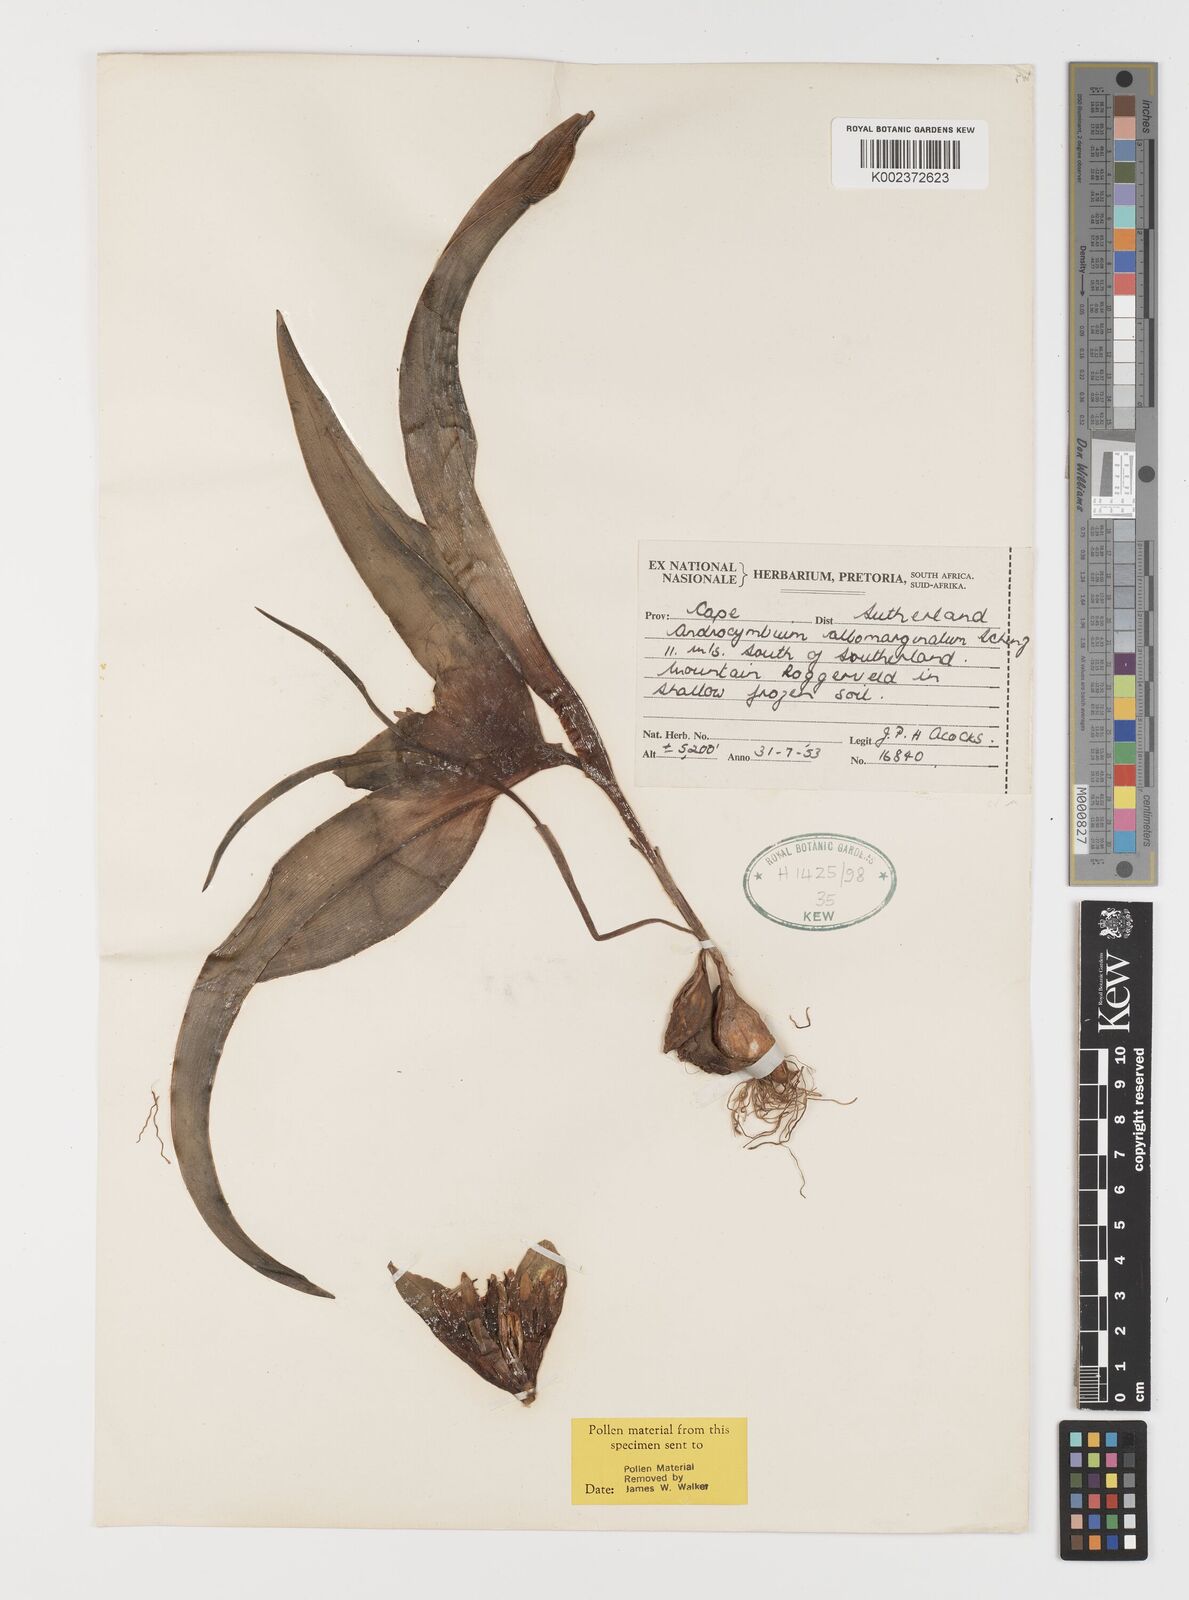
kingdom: Plantae
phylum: Tracheophyta
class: Liliopsida
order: Liliales
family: Colchicaceae
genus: Colchicum
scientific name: Colchicum albomarginatum
